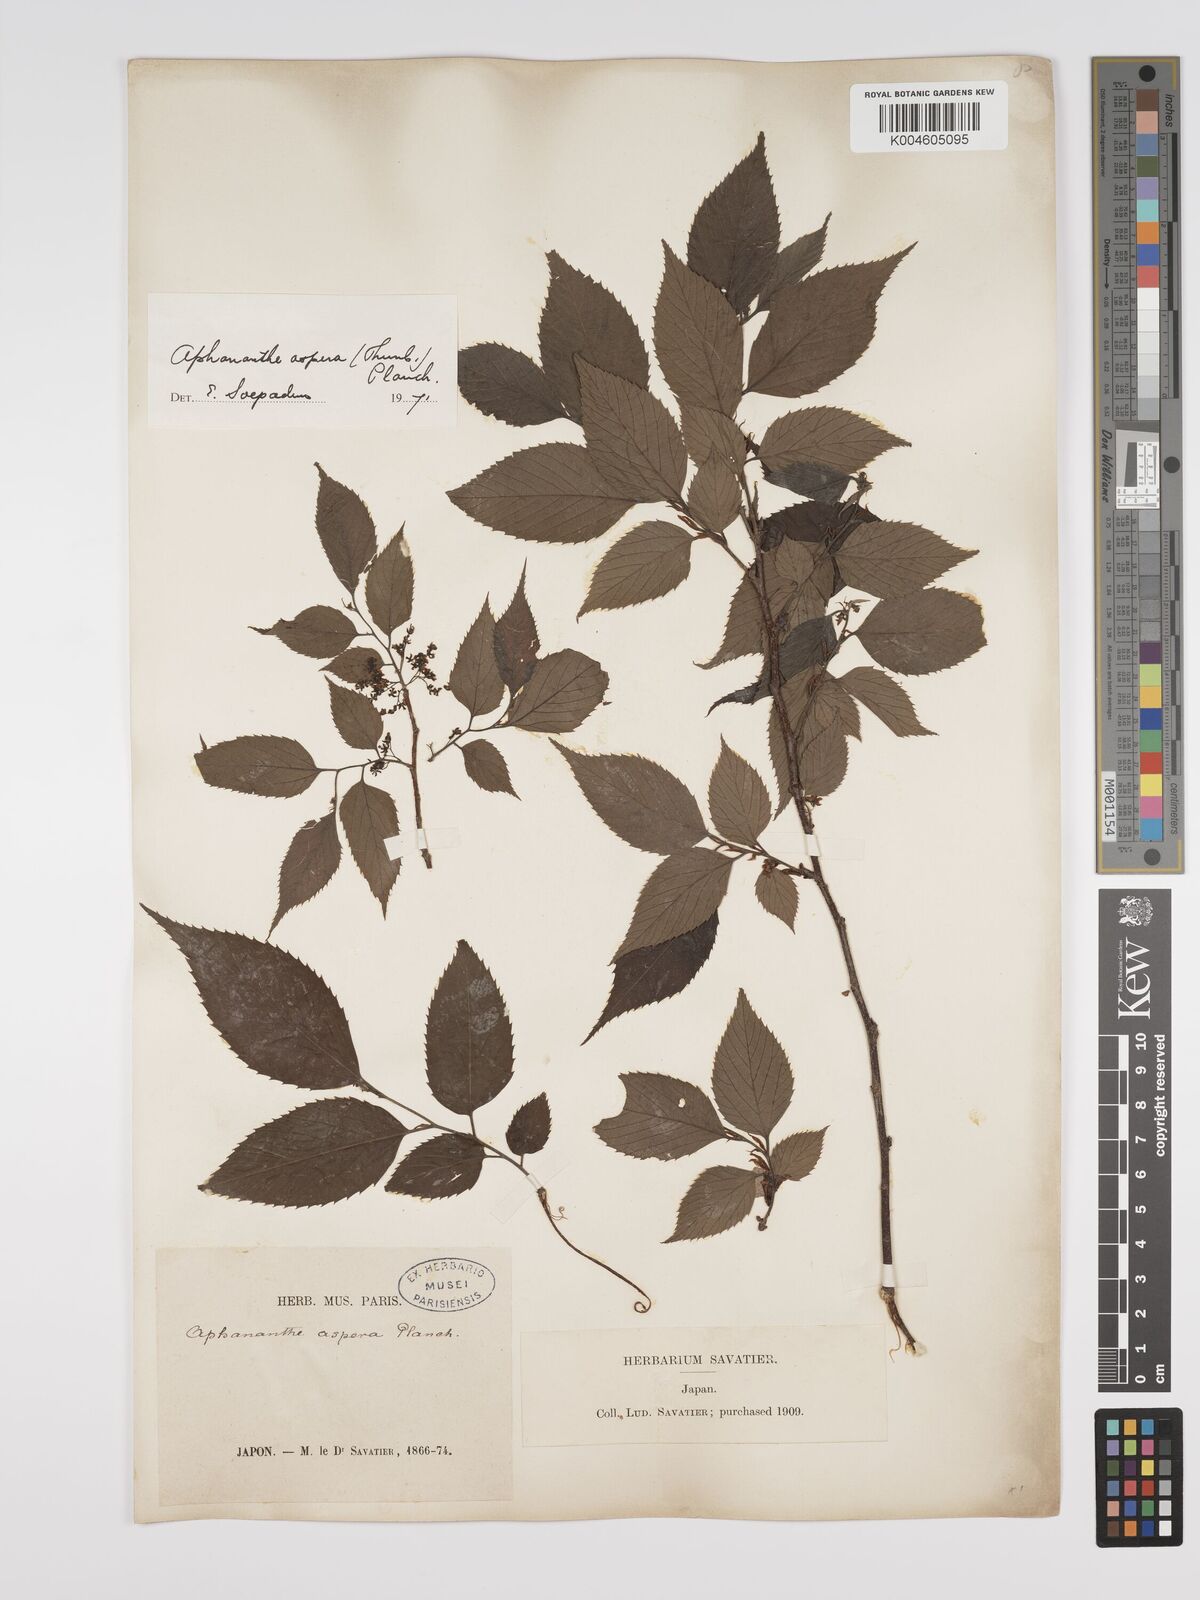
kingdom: Plantae
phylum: Tracheophyta
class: Magnoliopsida
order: Rosales
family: Cannabaceae
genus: Aphananthe
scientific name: Aphananthe aspera
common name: Mukutree
